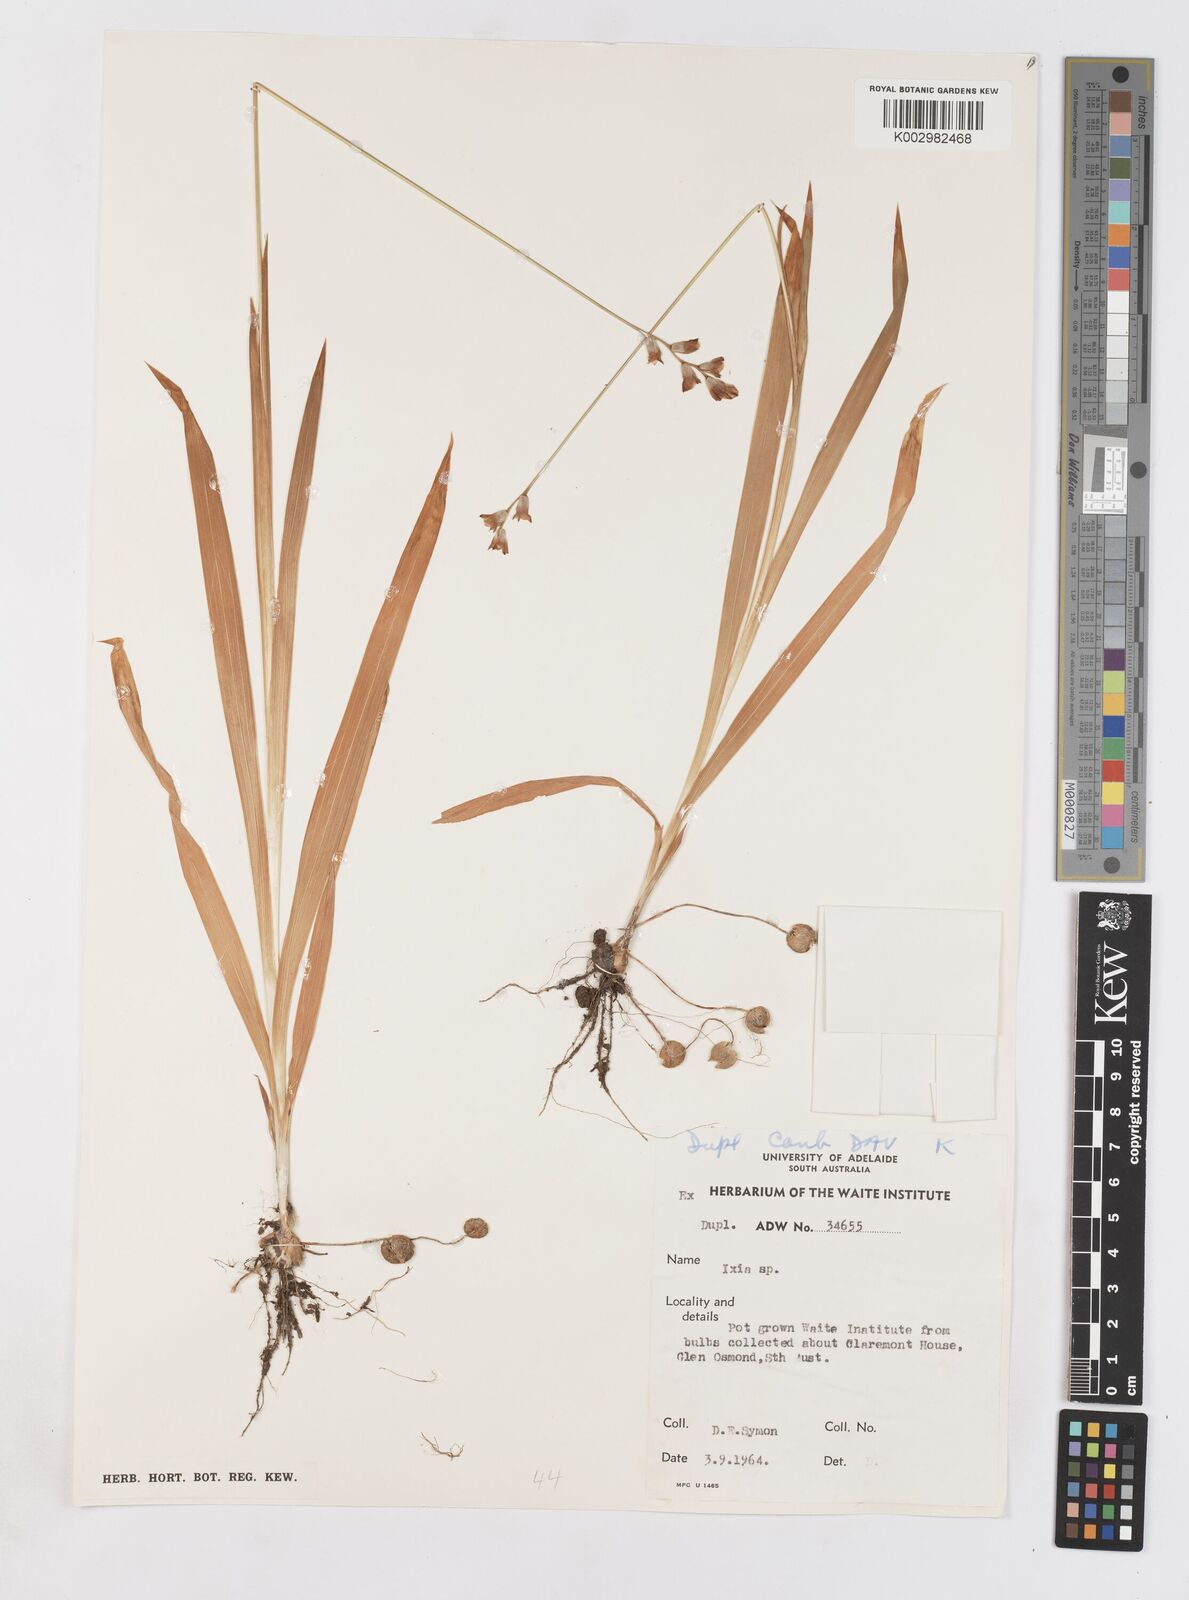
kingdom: Plantae
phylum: Tracheophyta
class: Liliopsida
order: Asparagales
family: Iridaceae
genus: Ixia
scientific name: Ixia
